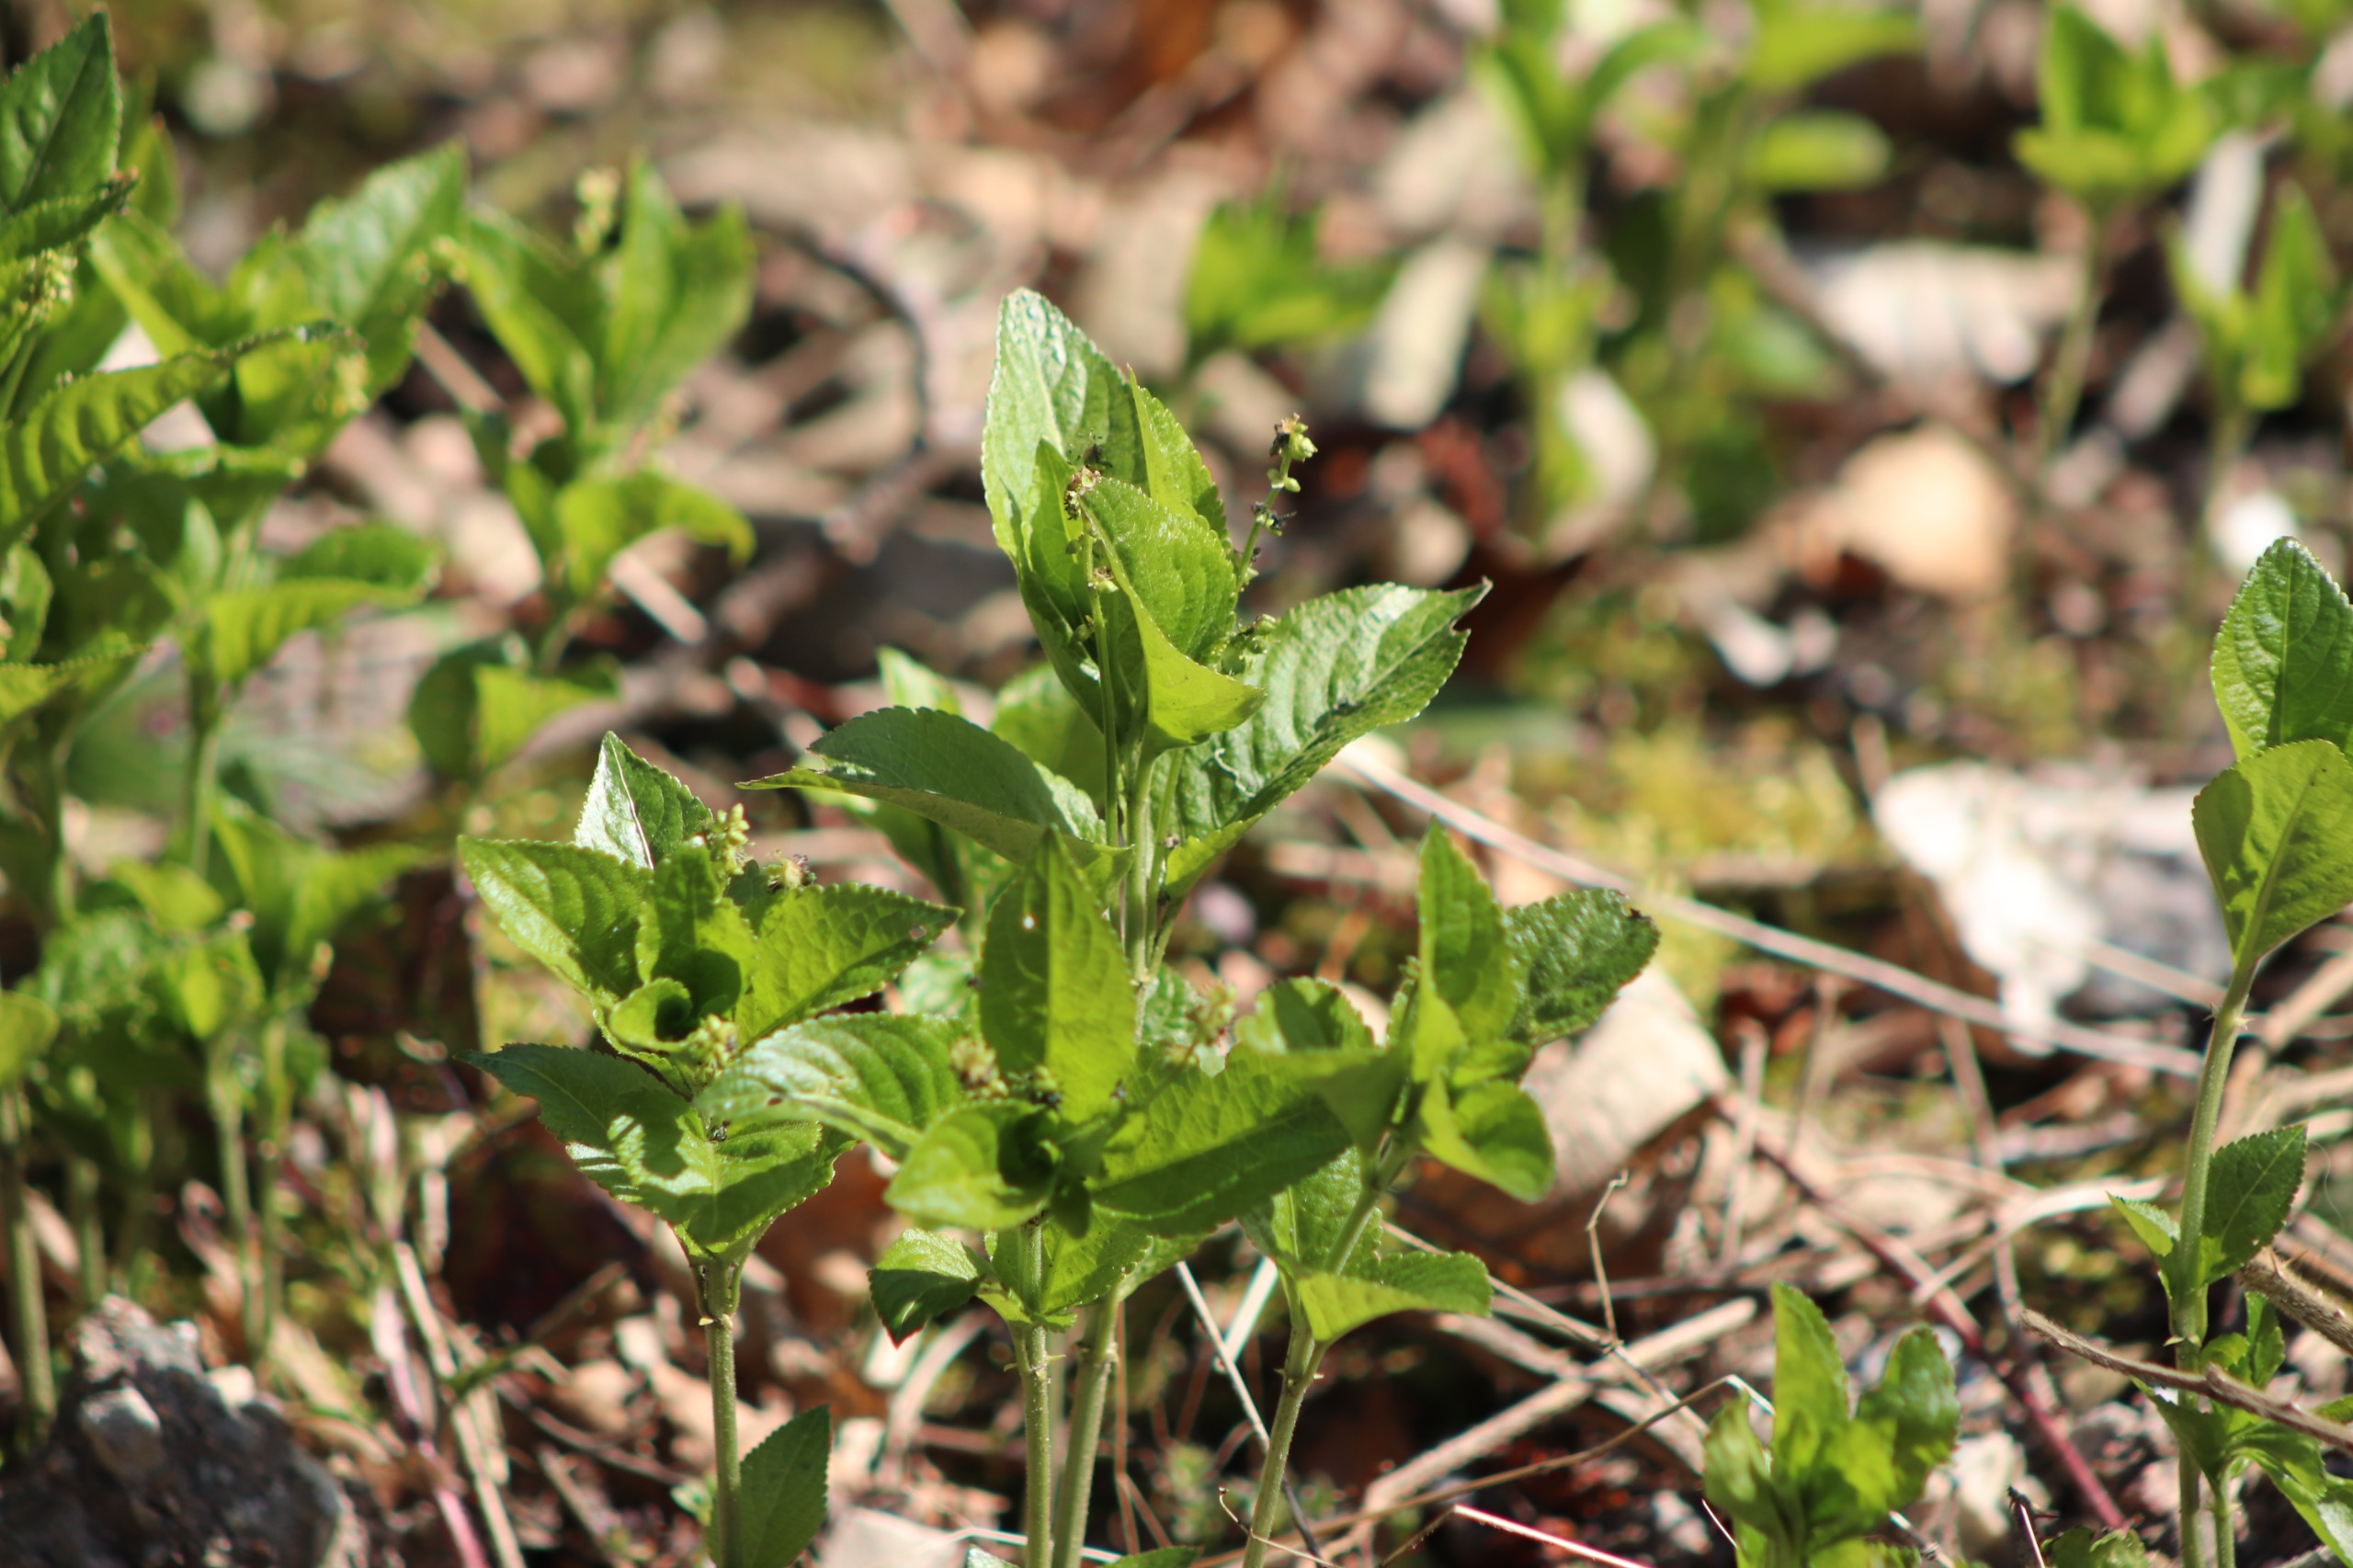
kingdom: Plantae
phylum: Tracheophyta
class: Magnoliopsida
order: Malpighiales
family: Euphorbiaceae
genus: Mercurialis
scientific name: Mercurialis perennis
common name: Almindelig bingelurt
